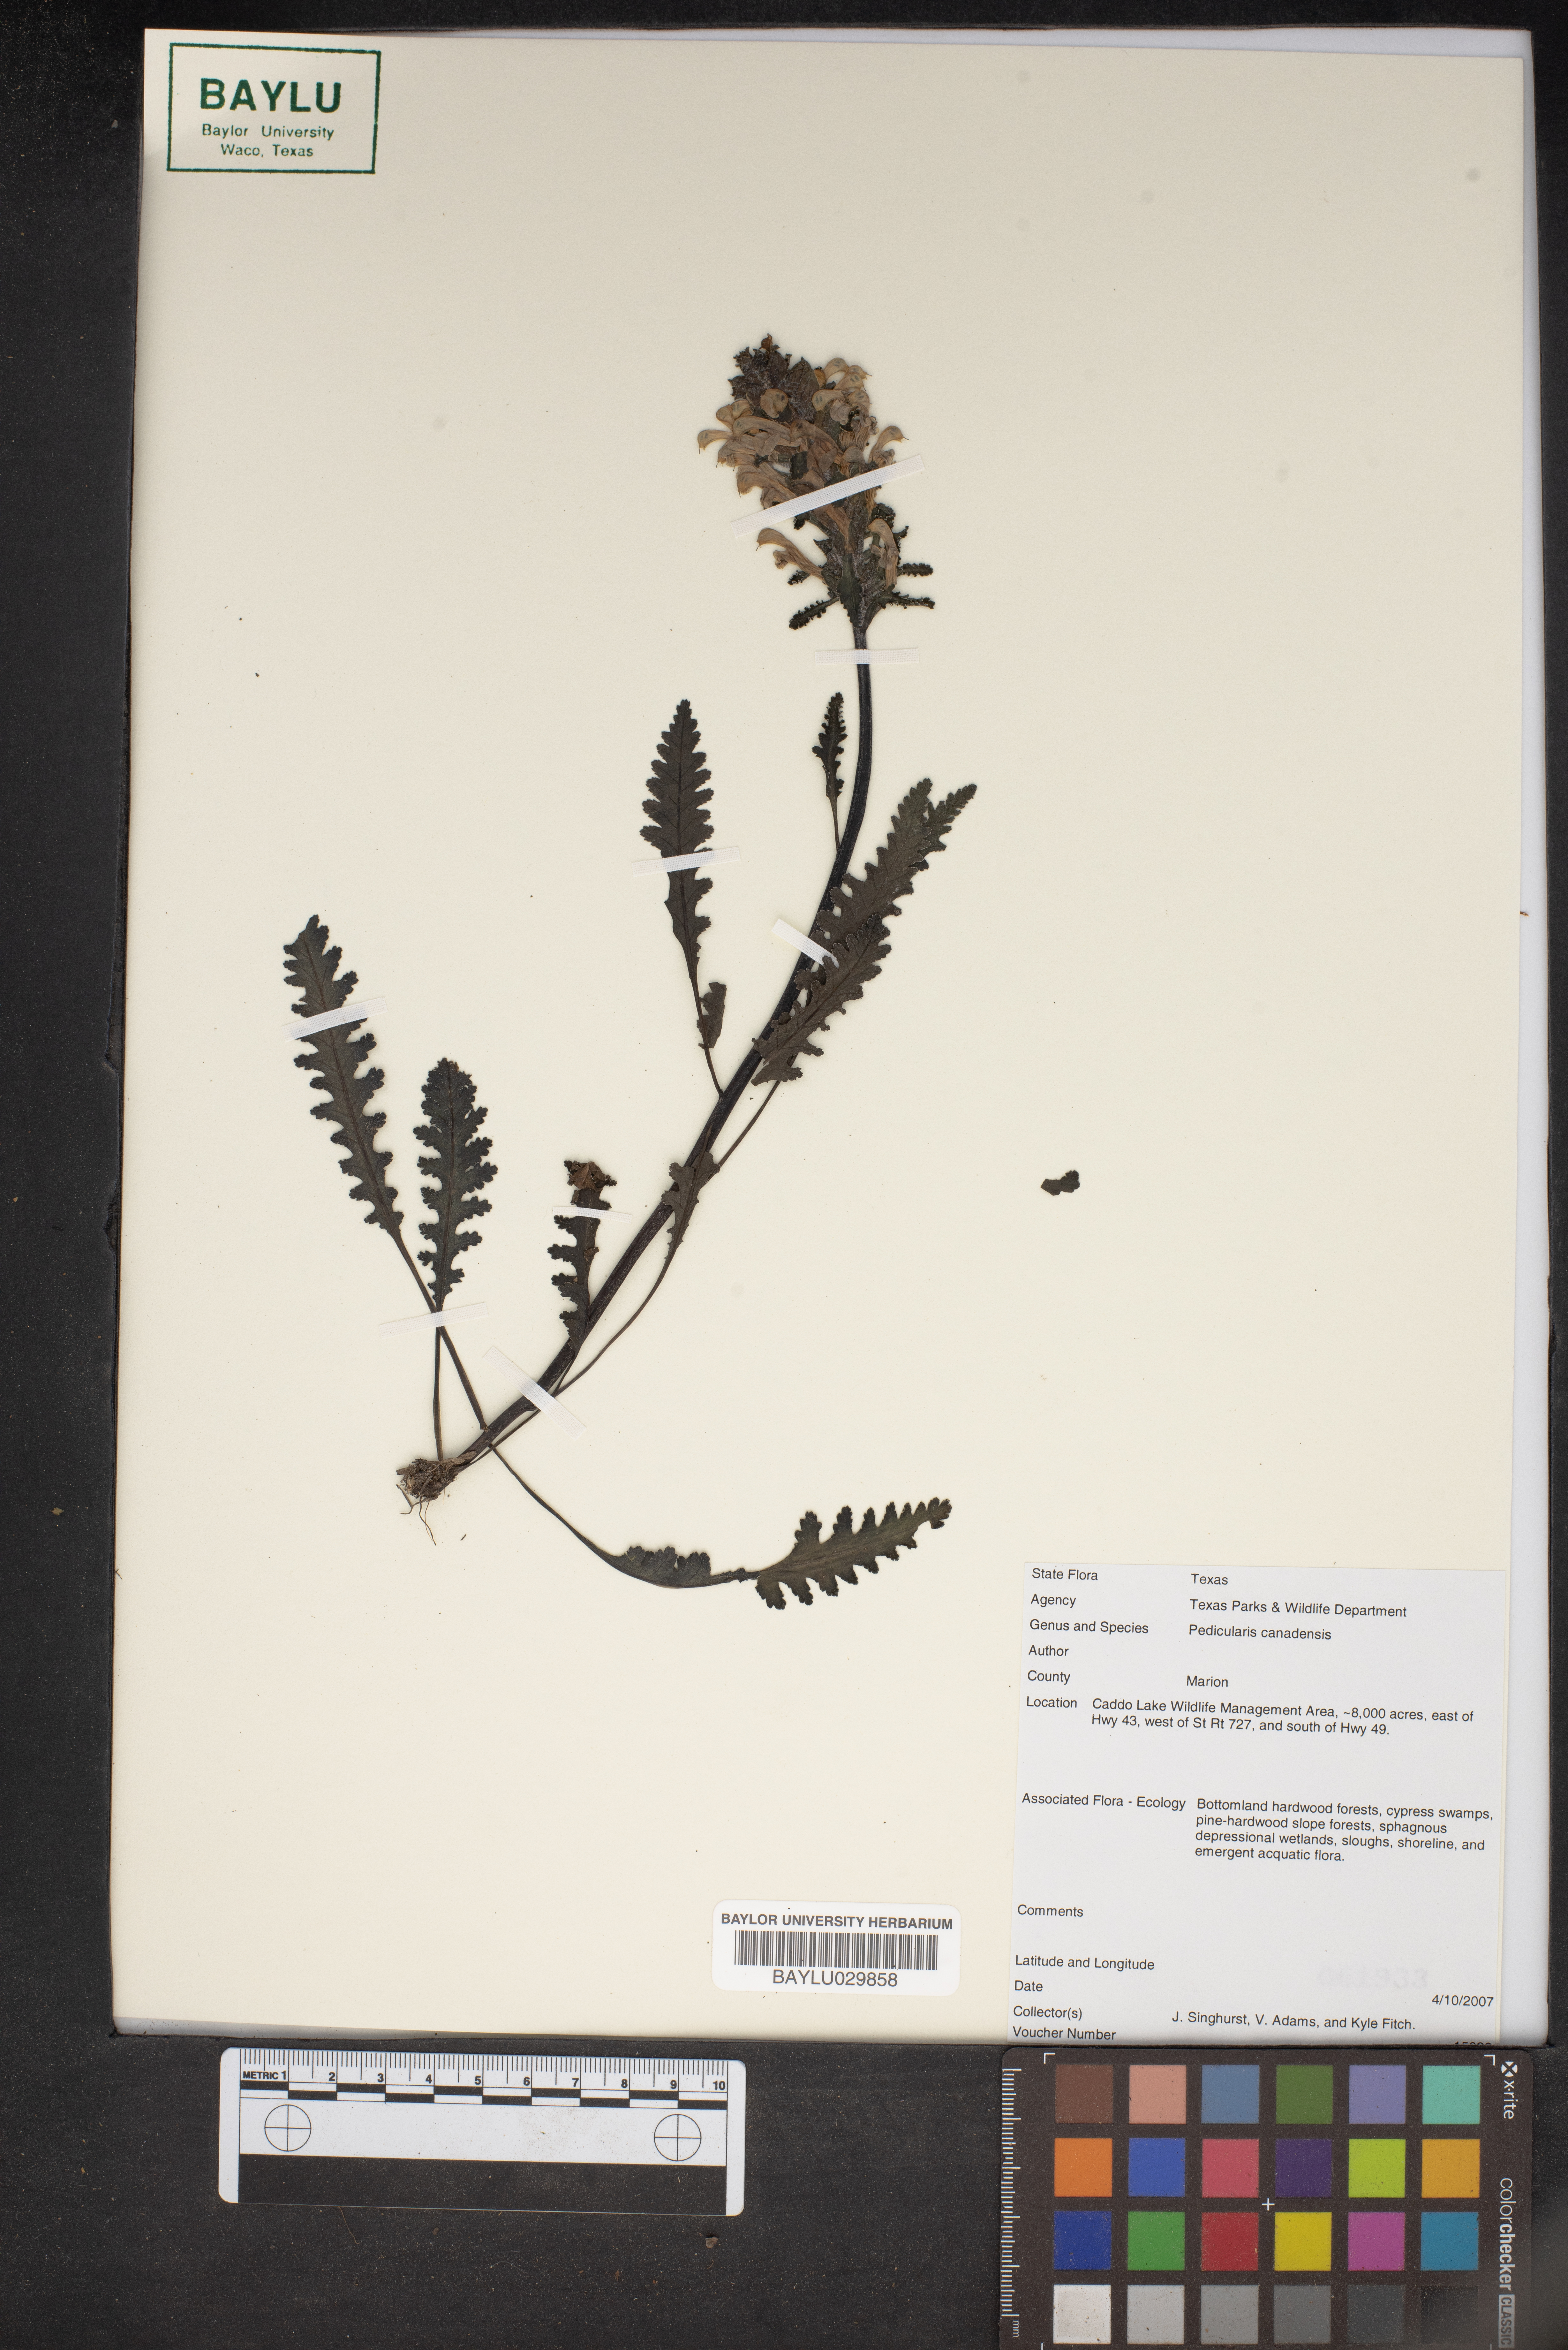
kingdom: Plantae
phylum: Tracheophyta
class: Magnoliopsida
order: Lamiales
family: Orobanchaceae
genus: Pedicularis
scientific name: Pedicularis canadensis
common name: Early lousewort
